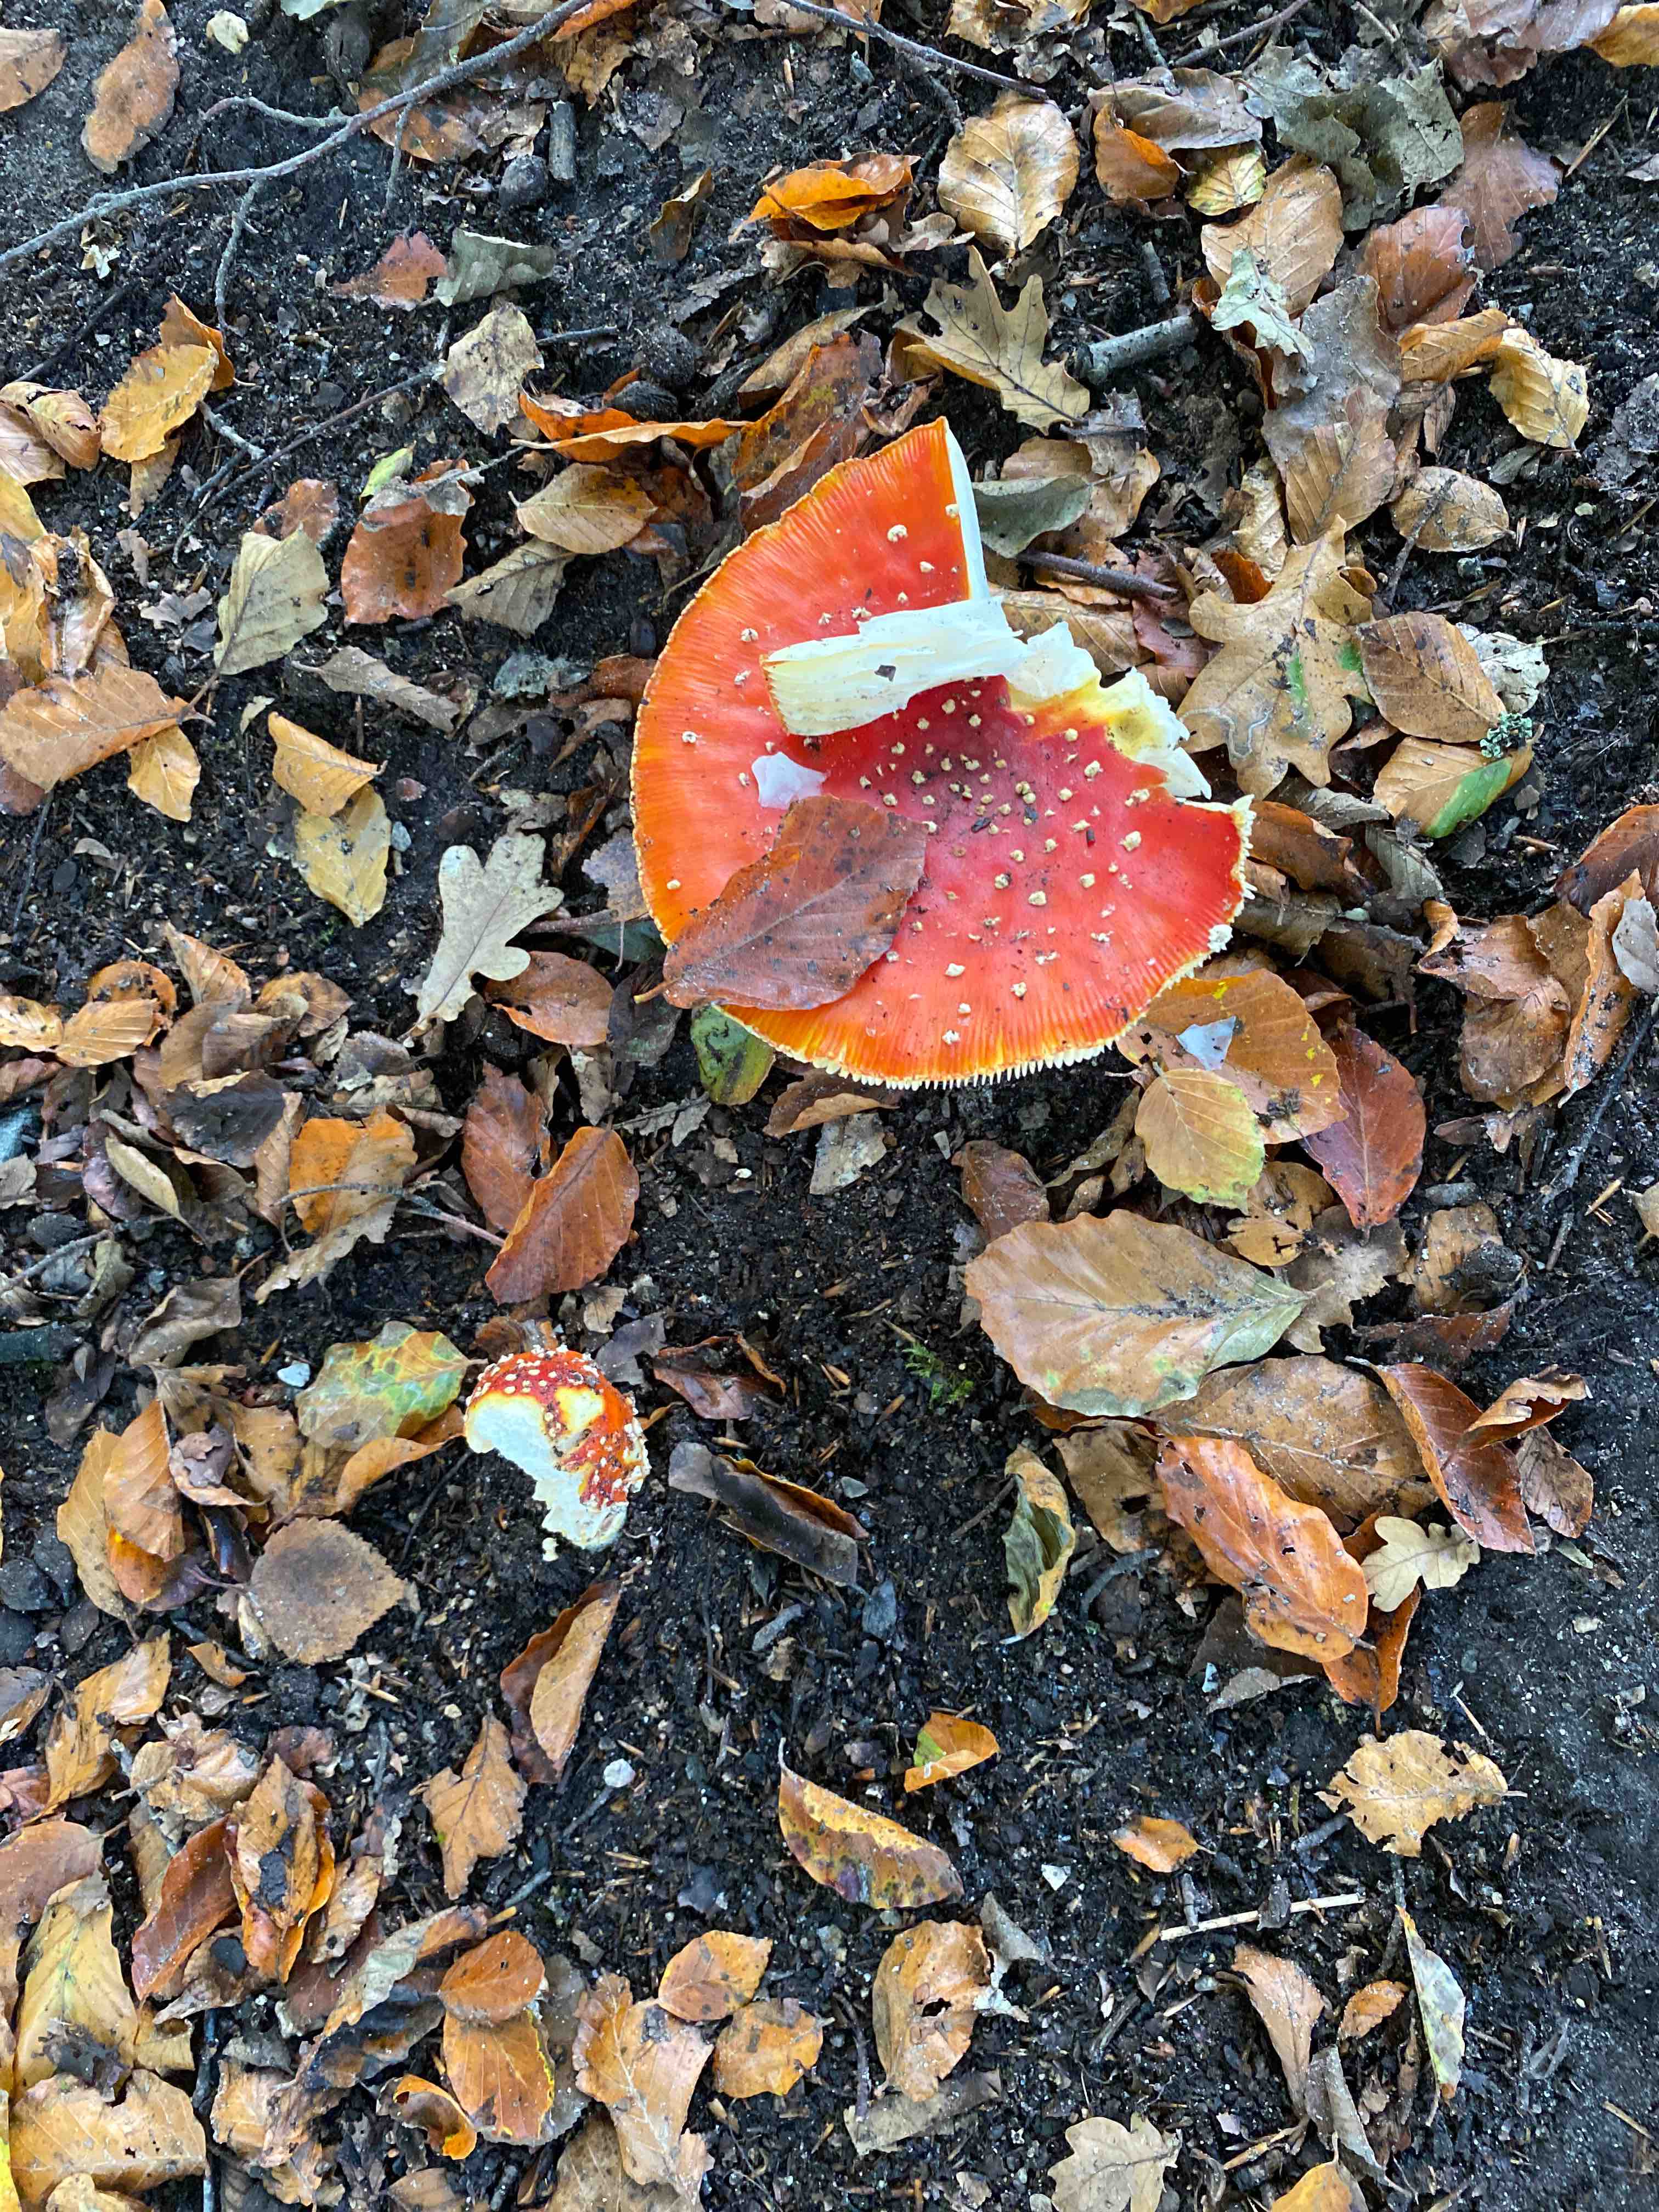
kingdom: Fungi
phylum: Basidiomycota
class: Agaricomycetes
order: Agaricales
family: Amanitaceae
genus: Amanita
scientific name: Amanita muscaria
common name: rød fluesvamp
